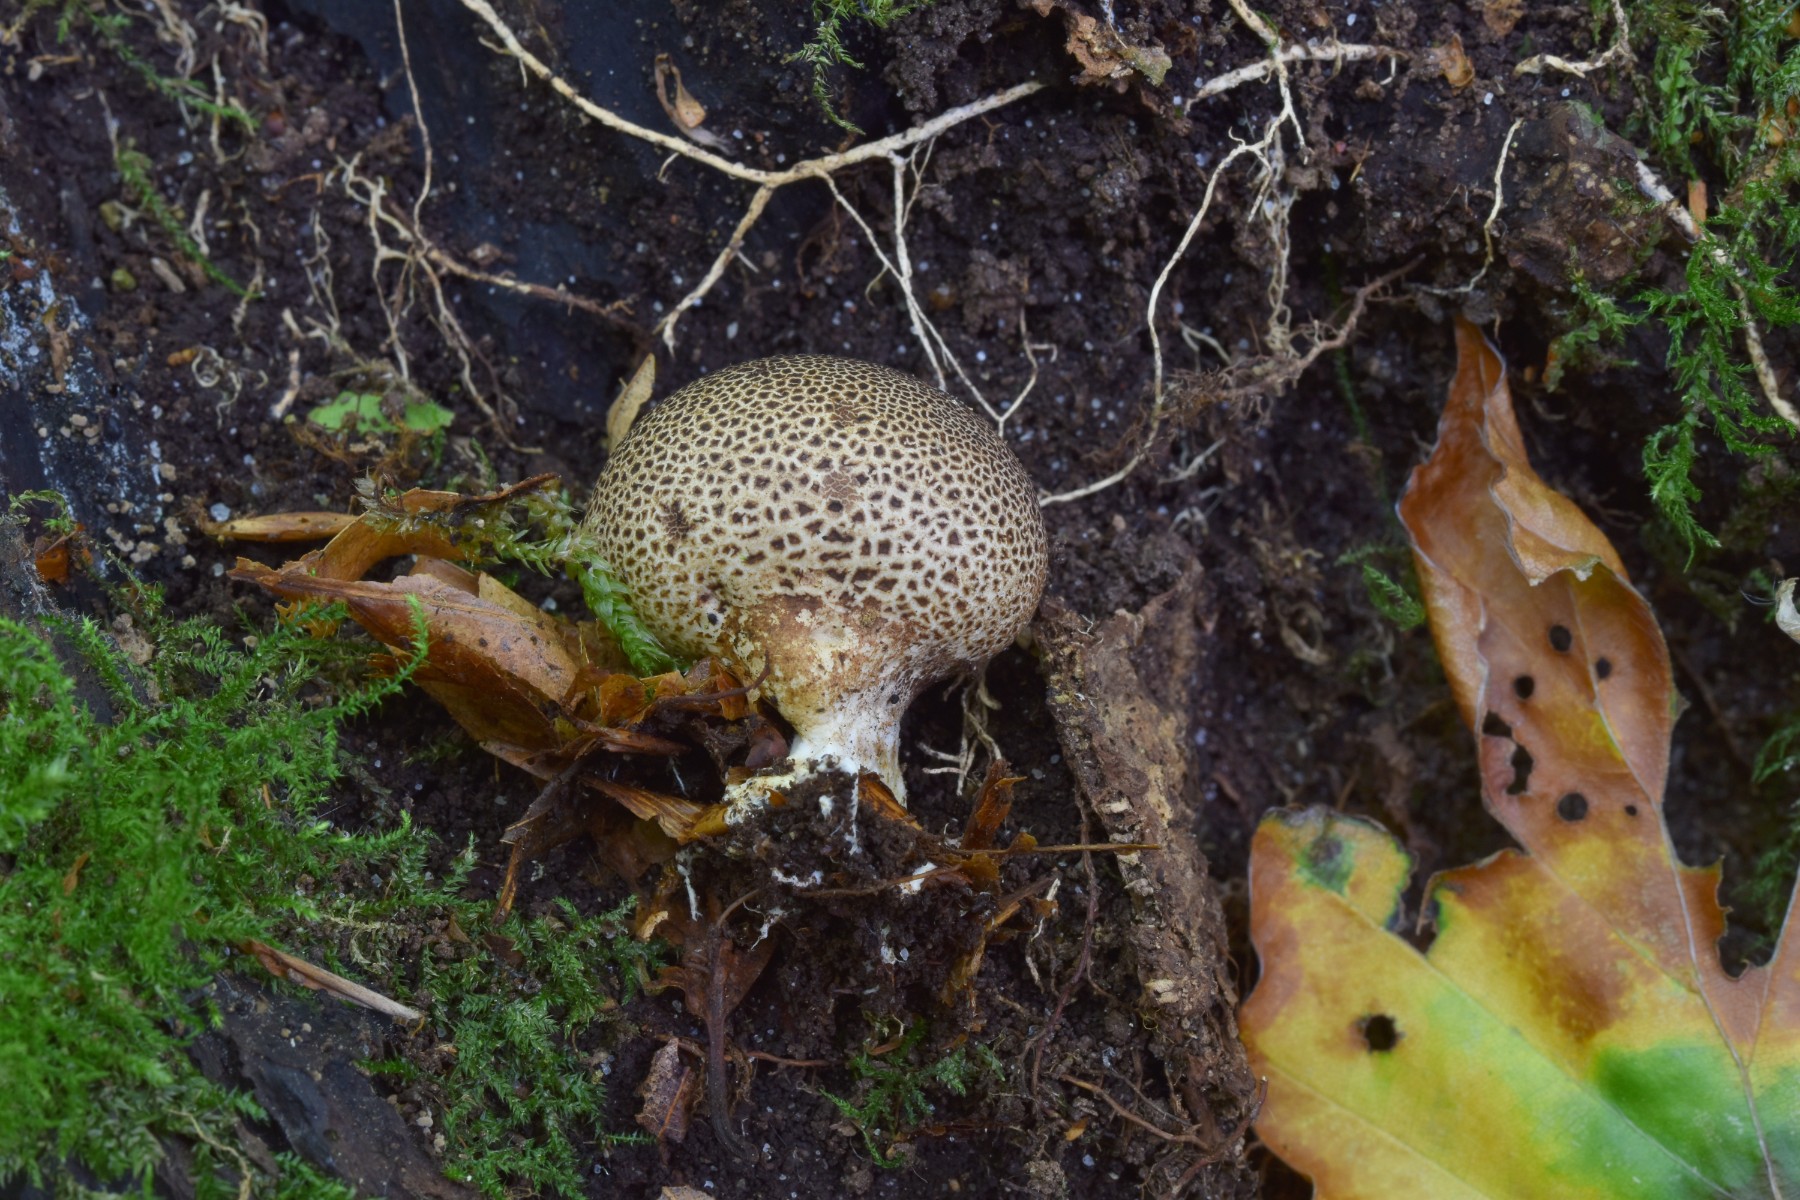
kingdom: Fungi
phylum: Basidiomycota
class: Agaricomycetes
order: Boletales
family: Sclerodermataceae
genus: Scleroderma
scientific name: Scleroderma areolatum
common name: plettet bruskbold
